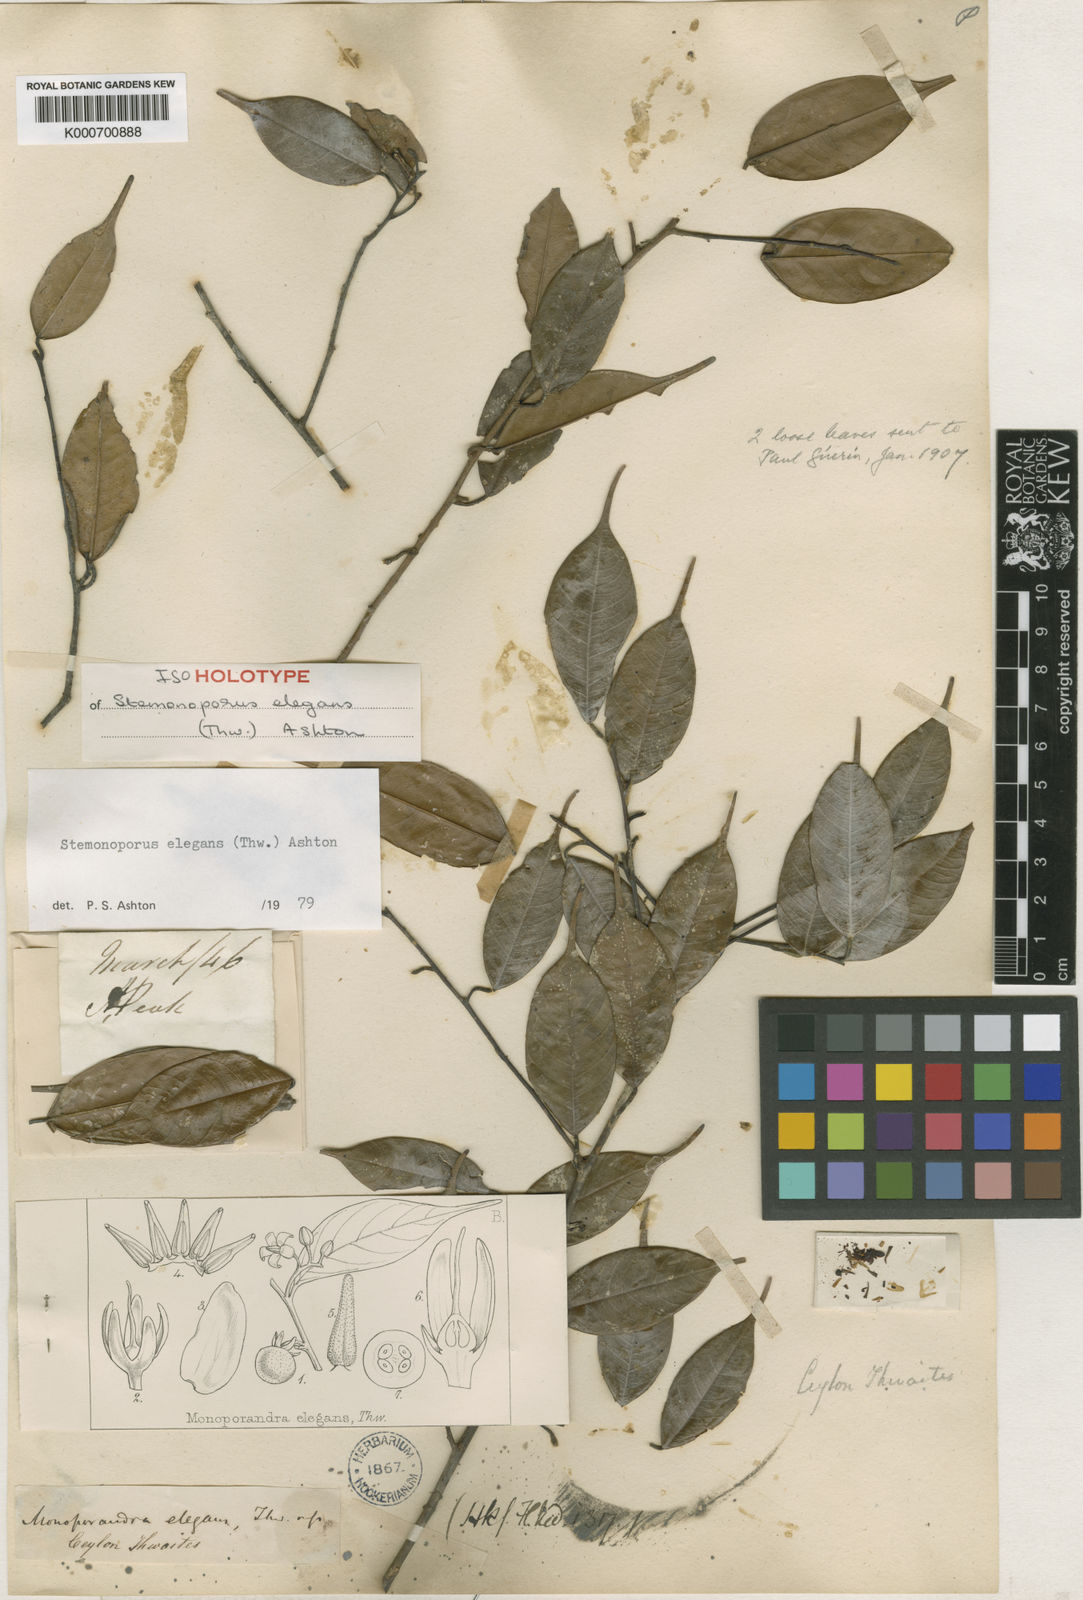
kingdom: Plantae
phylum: Tracheophyta
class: Magnoliopsida
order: Malvales
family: Dipterocarpaceae
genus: Stemonoporus
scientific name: Stemonoporus elegans
